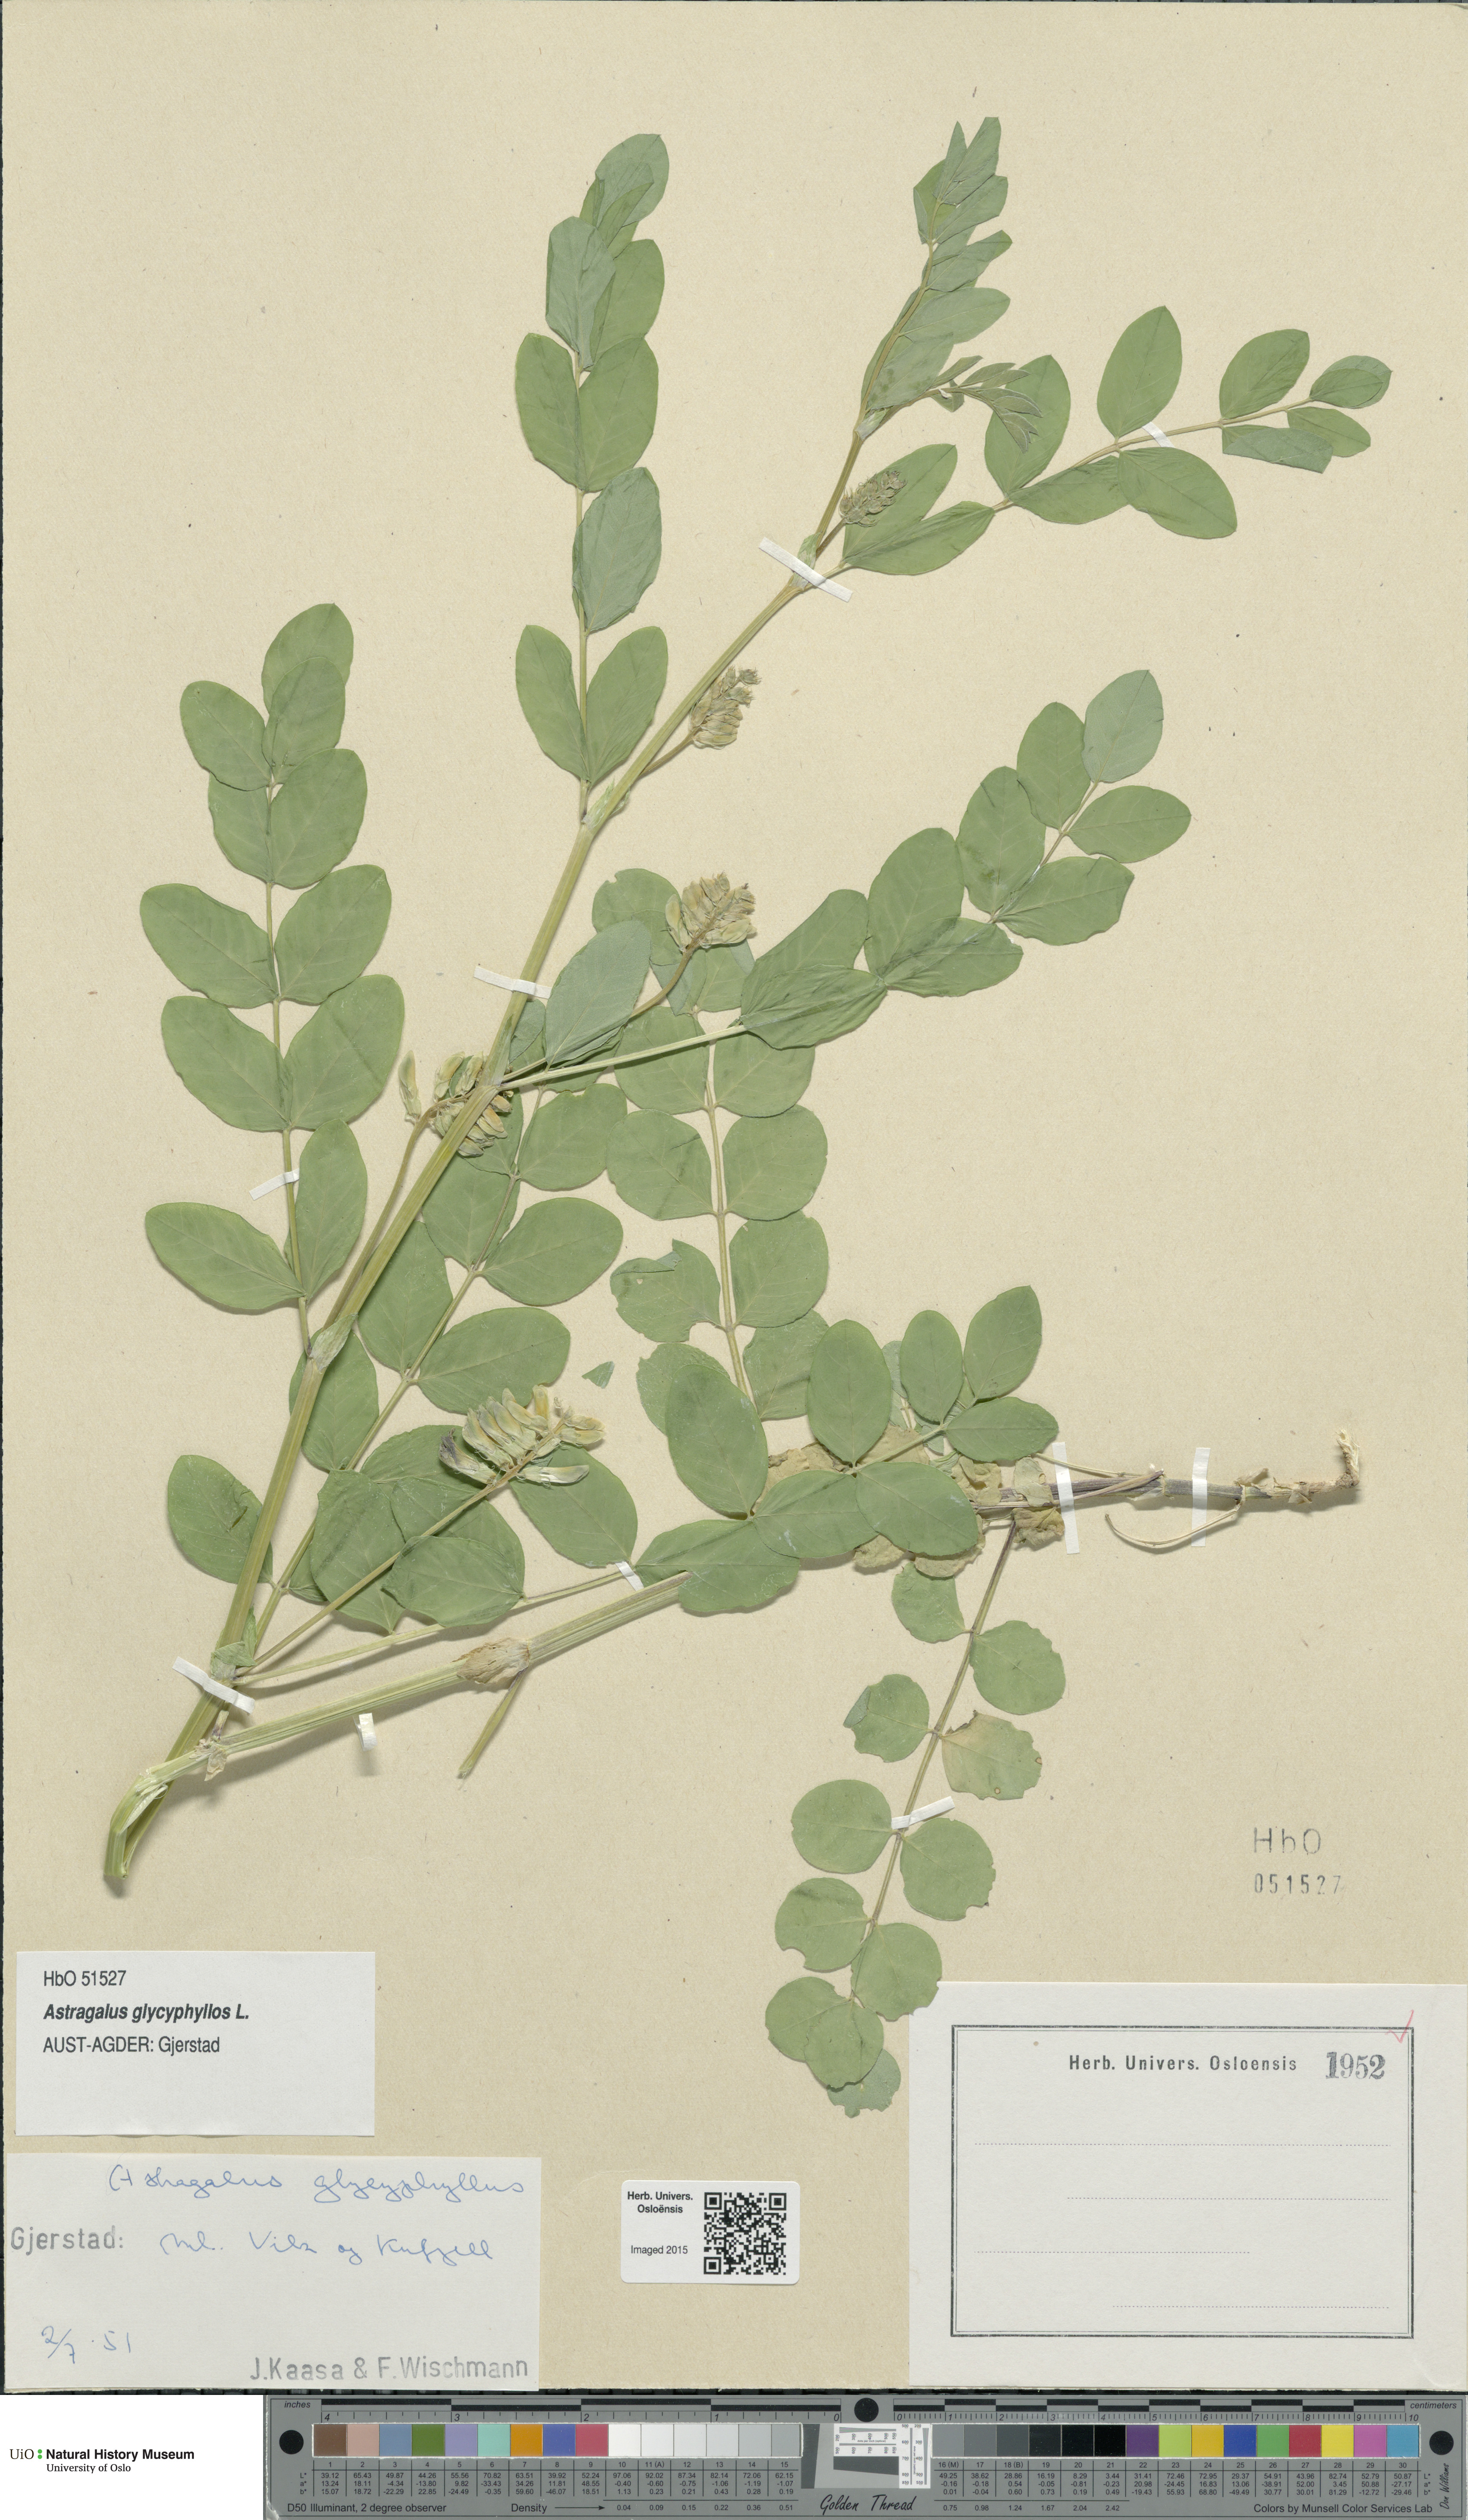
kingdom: Plantae
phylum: Tracheophyta
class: Magnoliopsida
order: Fabales
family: Fabaceae
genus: Astragalus
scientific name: Astragalus glycyphyllos
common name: Wild liquorice
